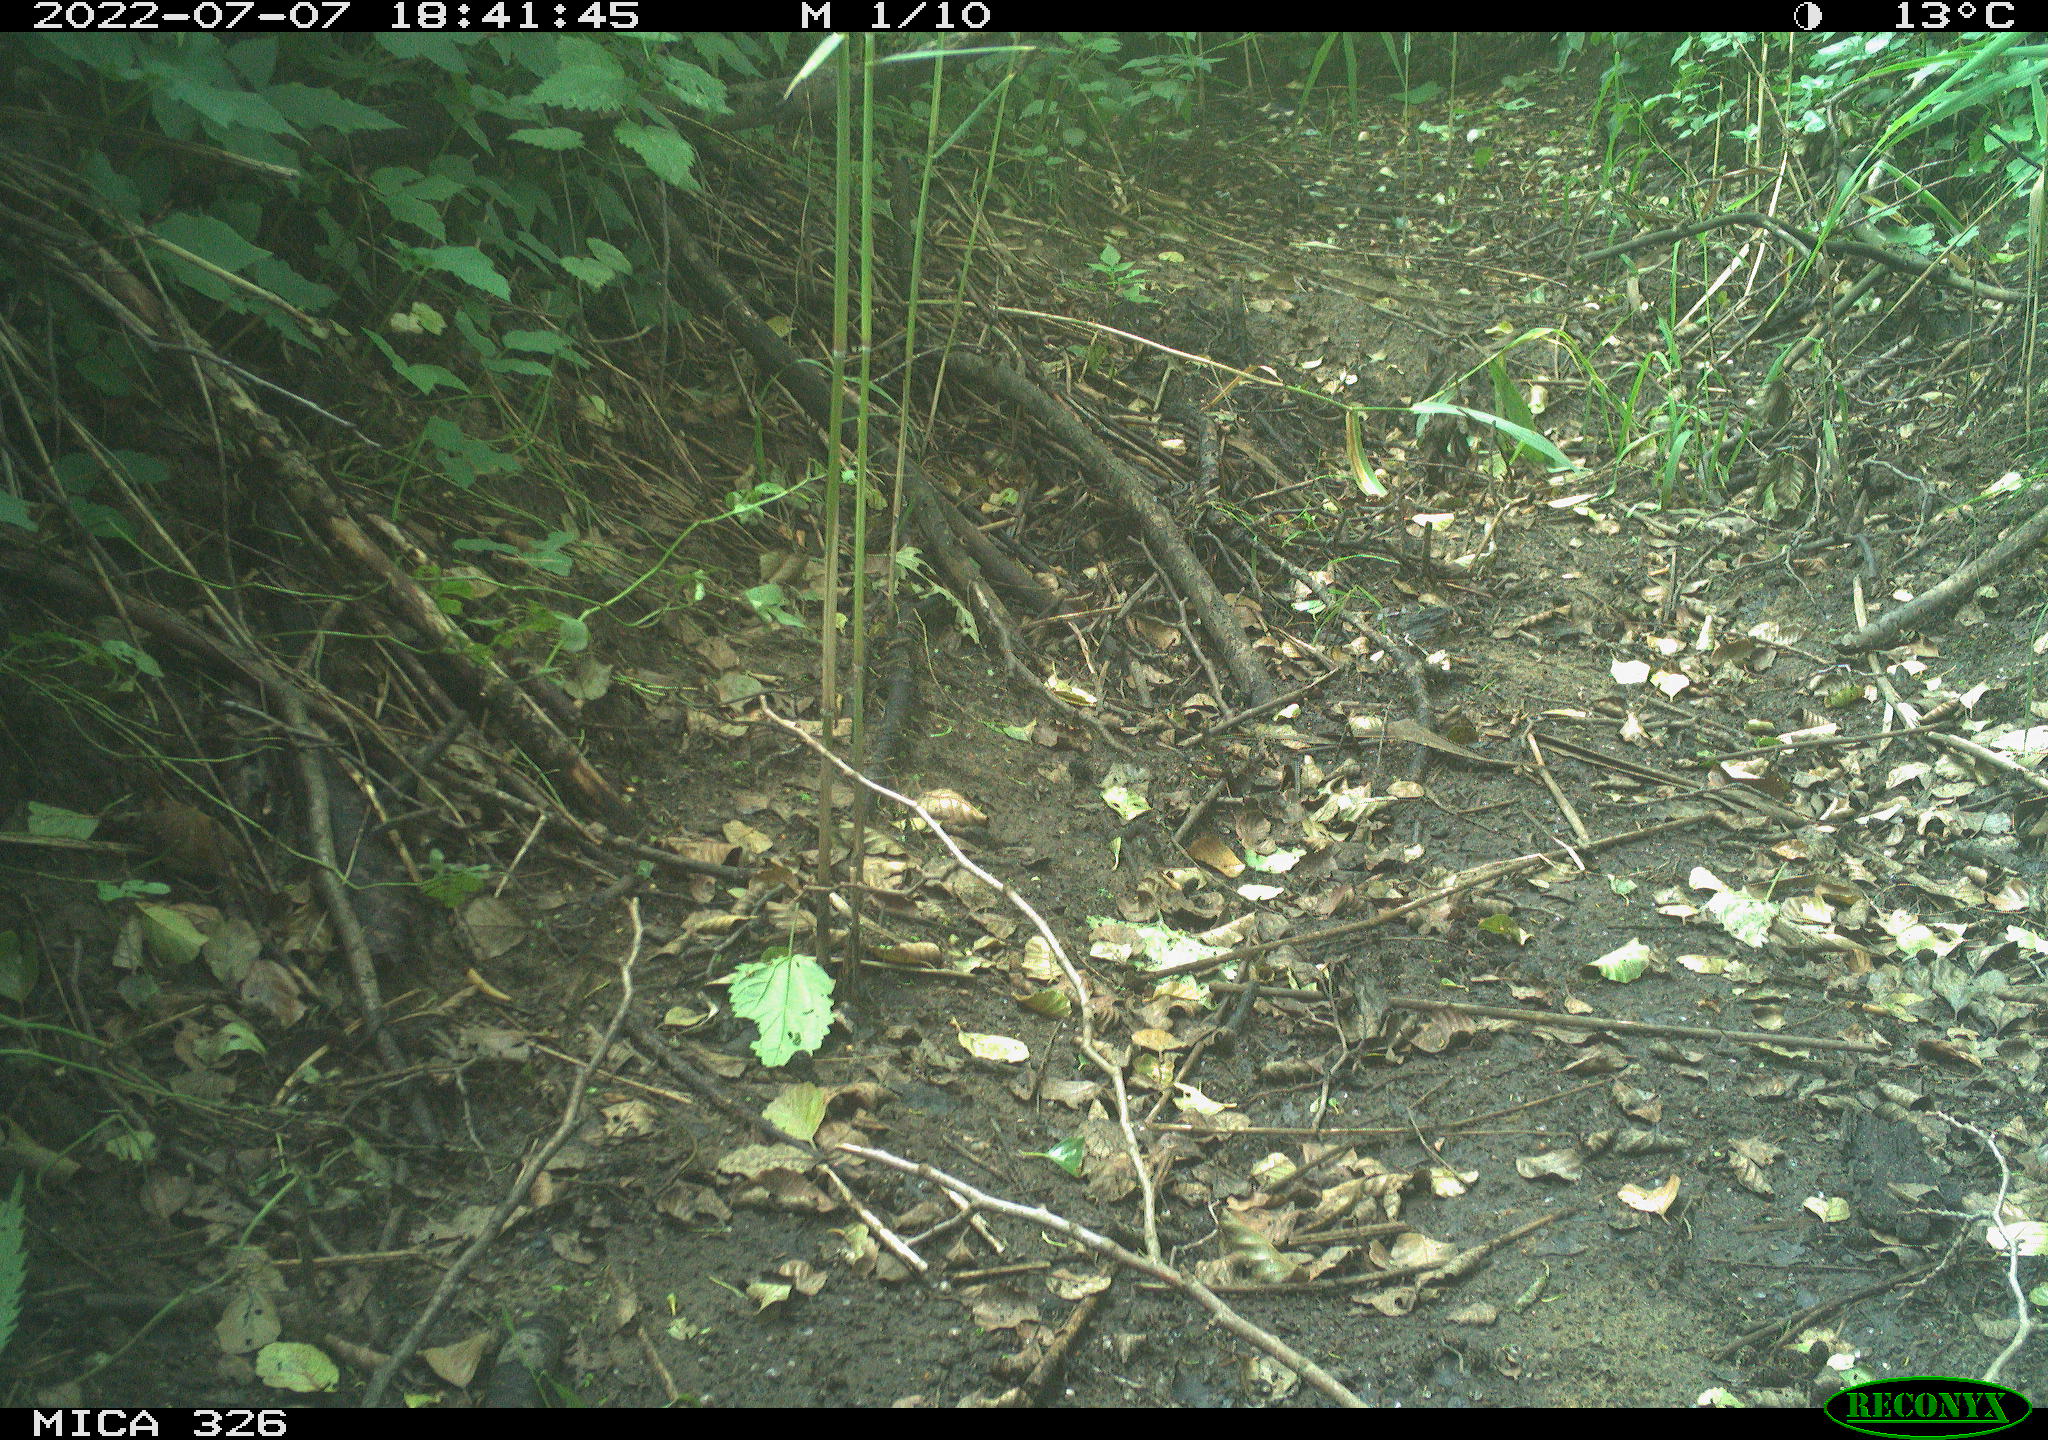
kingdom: Animalia
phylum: Chordata
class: Aves
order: Passeriformes
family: Troglodytidae
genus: Troglodytes
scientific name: Troglodytes troglodytes
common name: Eurasian wren
